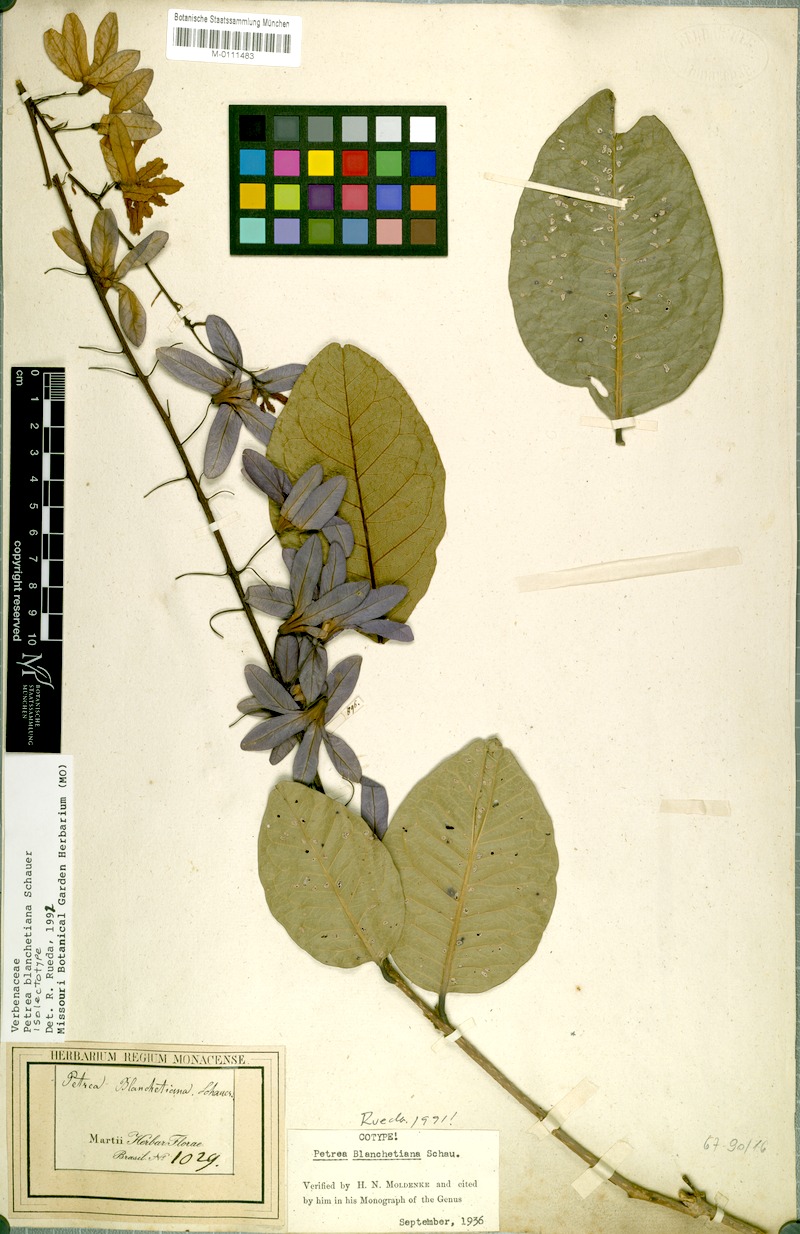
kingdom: Plantae
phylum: Tracheophyta
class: Magnoliopsida
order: Lamiales
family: Verbenaceae
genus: Petrea
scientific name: Petrea blanchetiana
